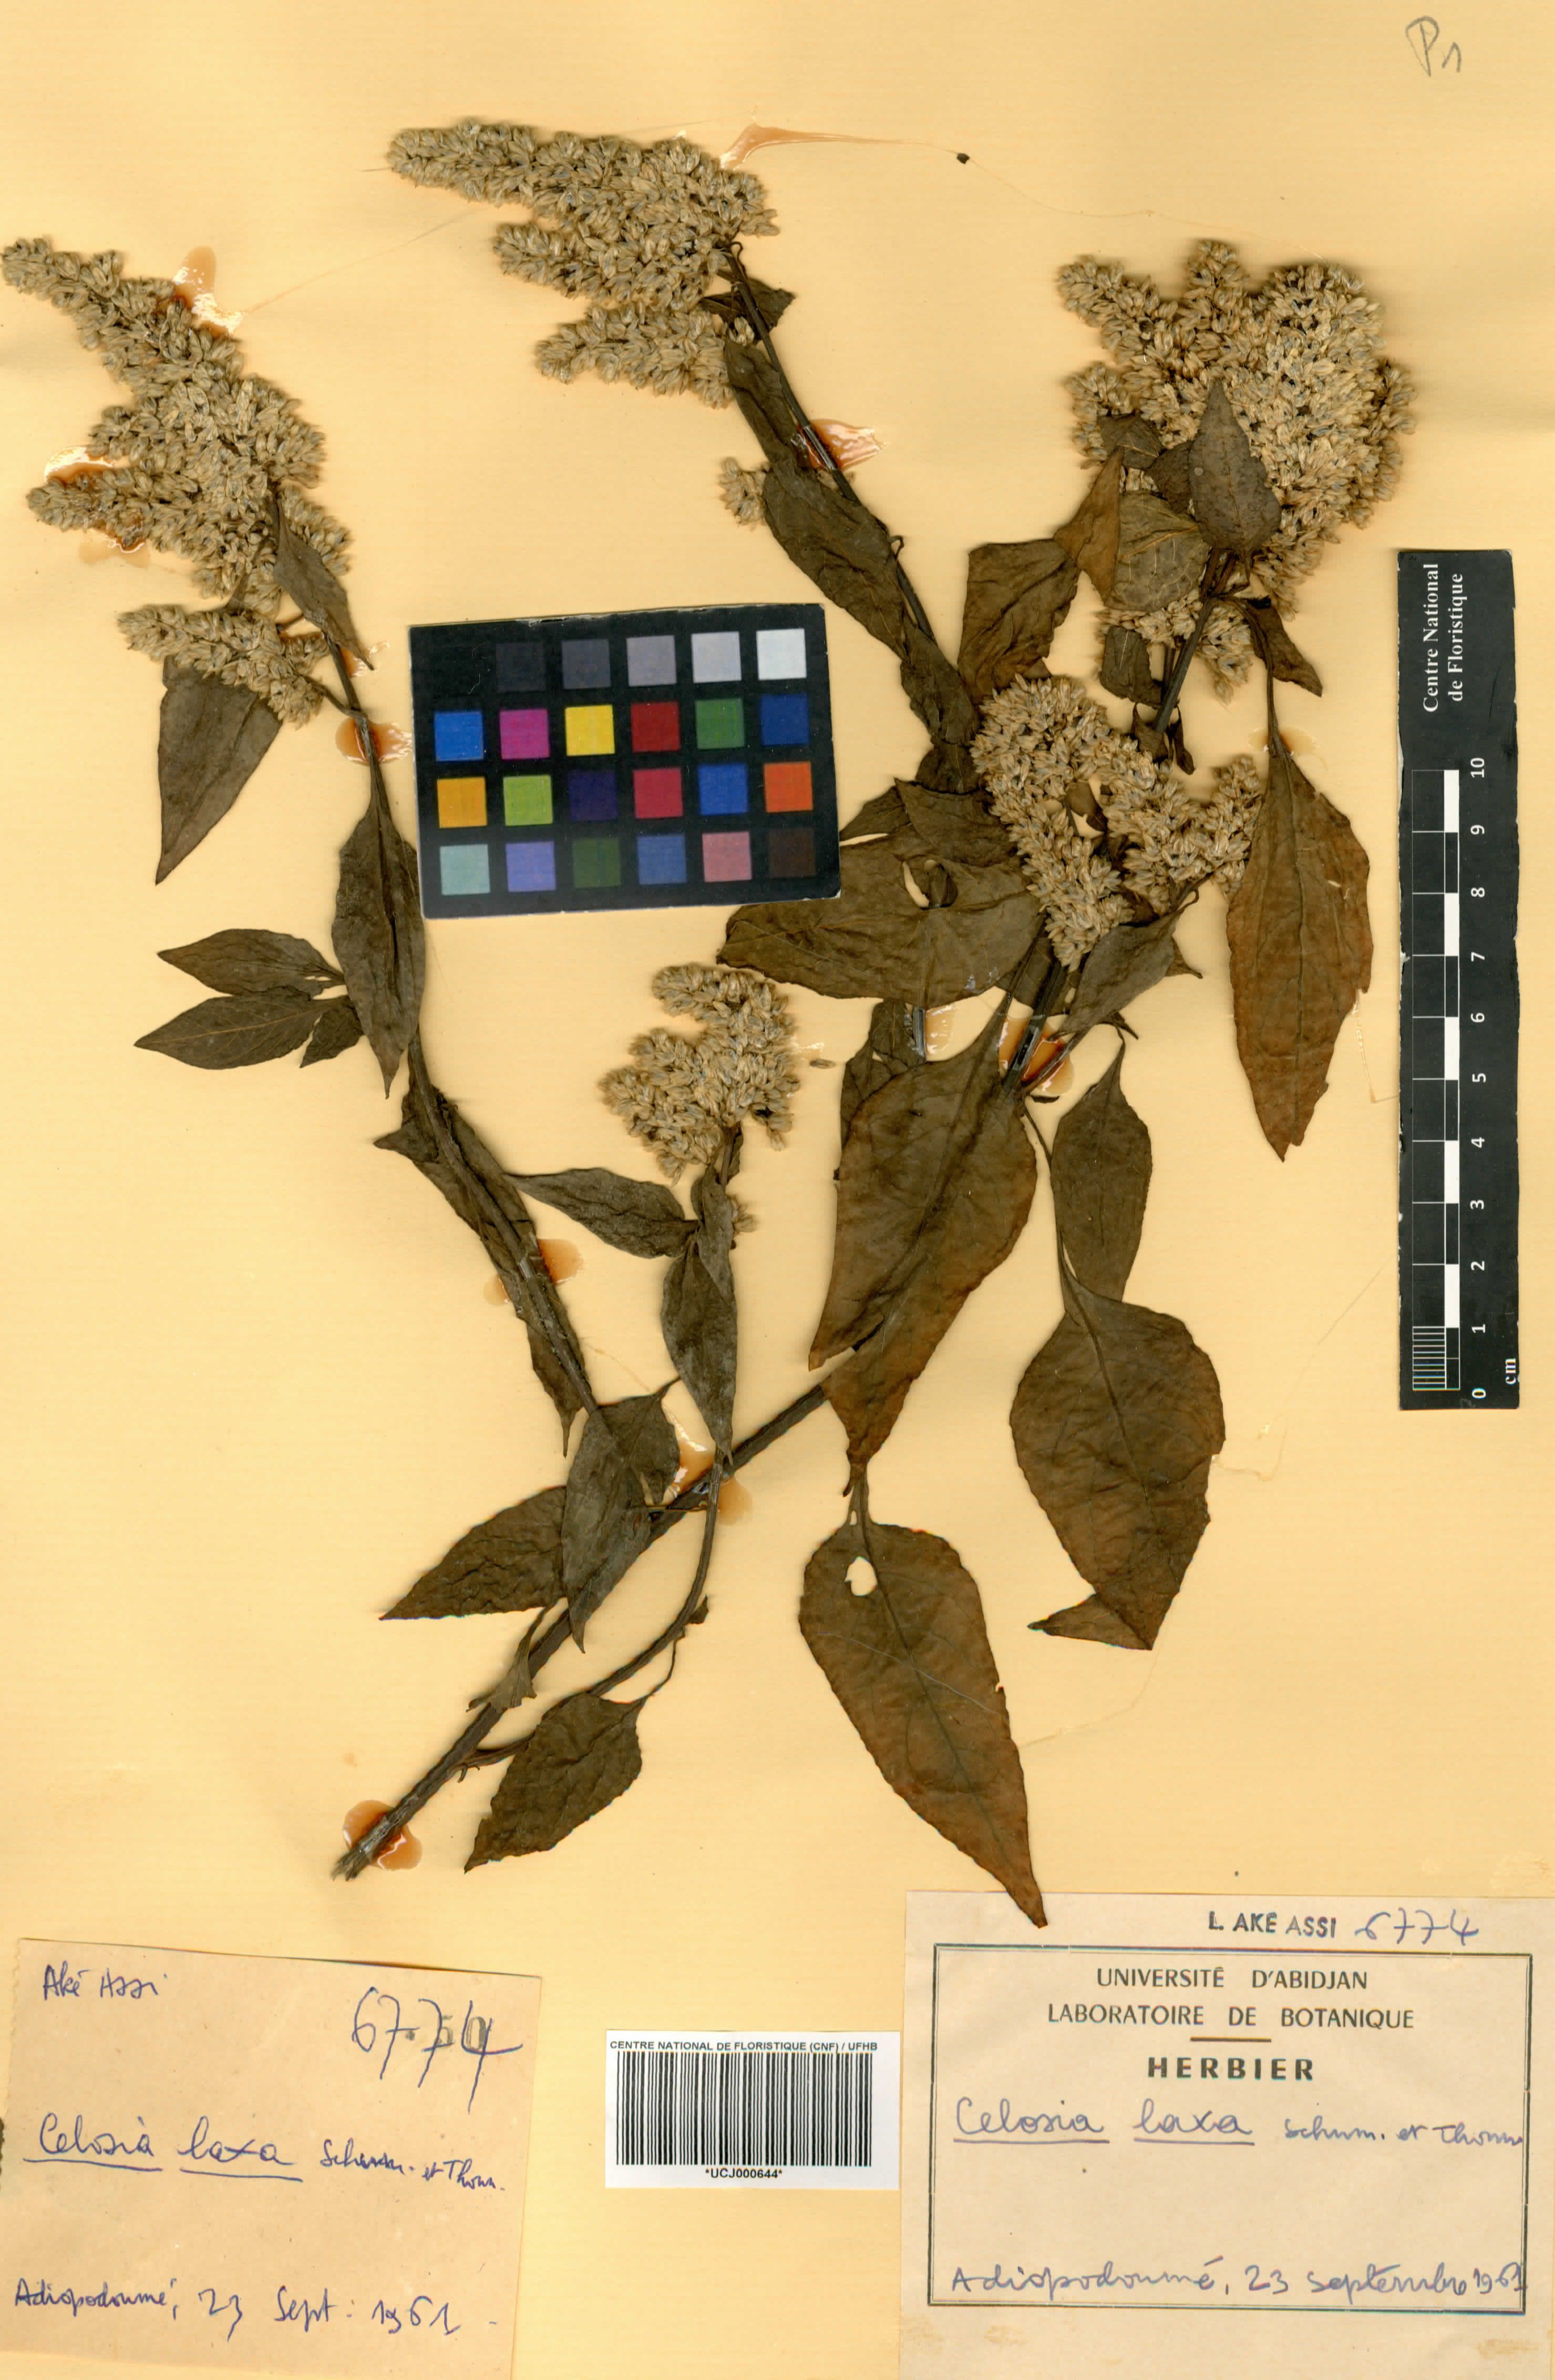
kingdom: Plantae
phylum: Tracheophyta
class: Magnoliopsida
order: Caryophyllales
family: Amaranthaceae
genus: Celosia
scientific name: Celosia trigyna
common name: Woolflower
